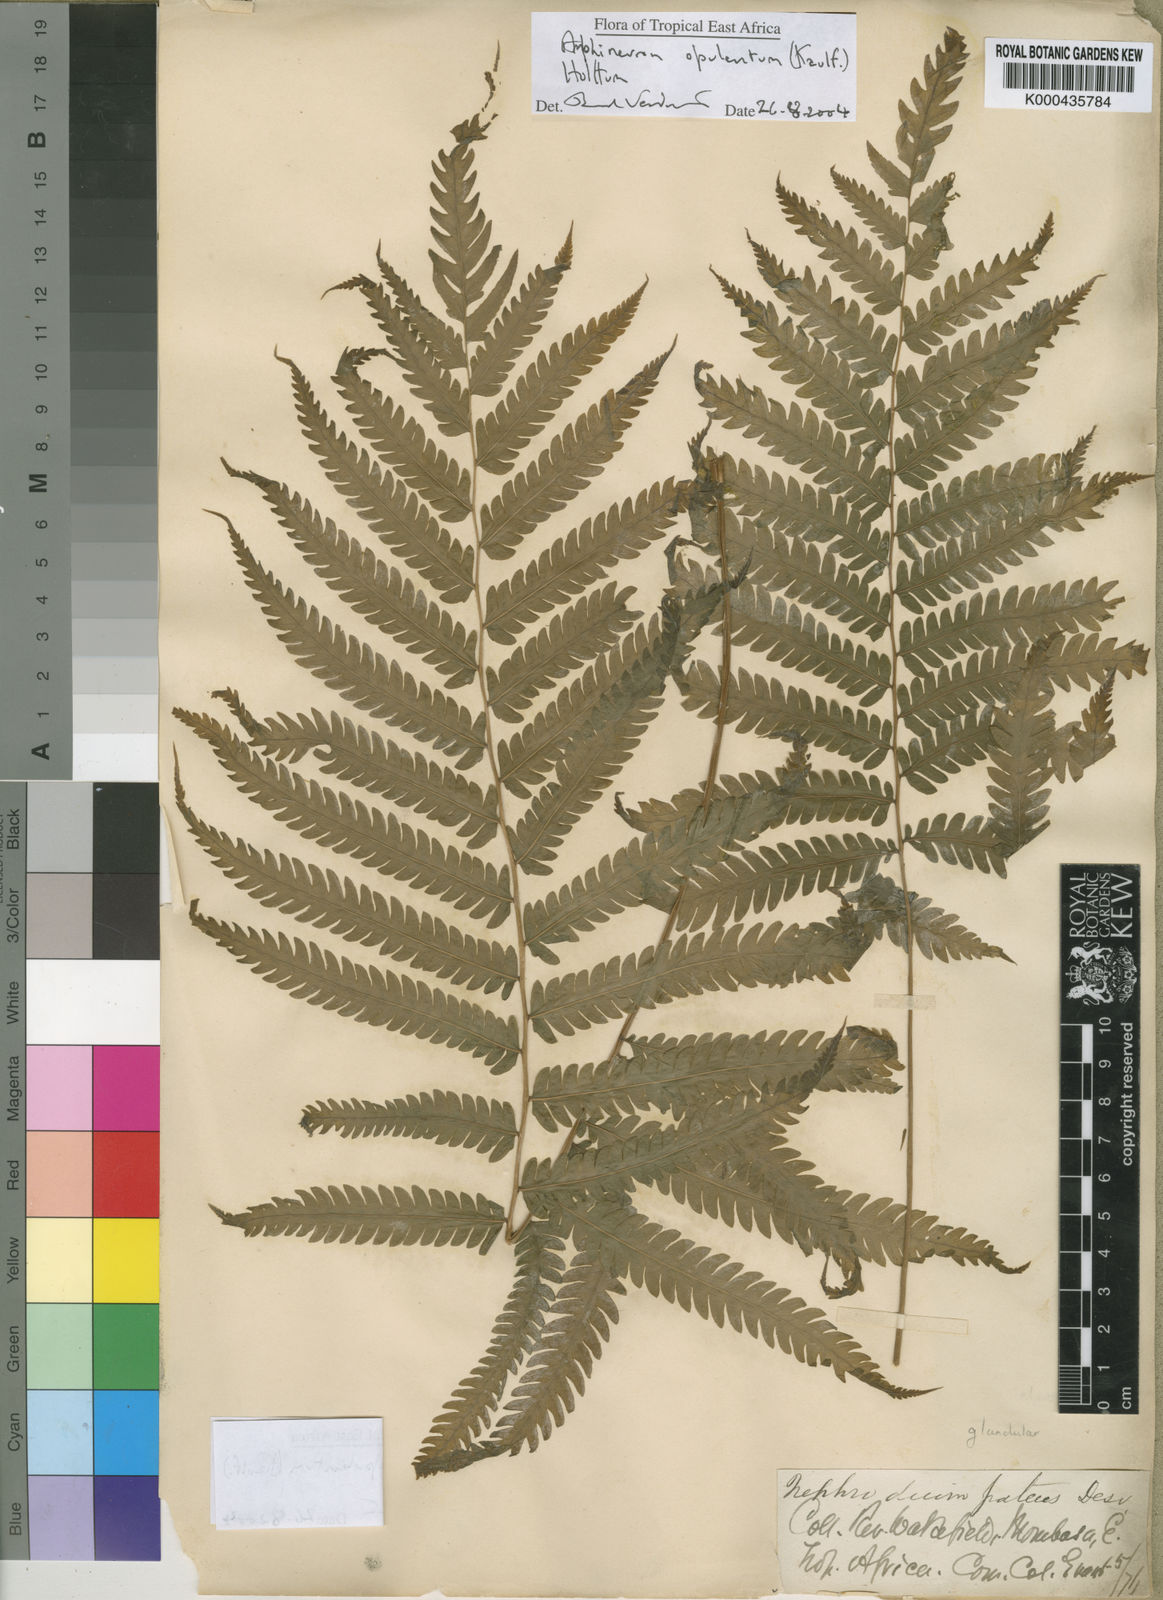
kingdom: Plantae
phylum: Tracheophyta
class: Polypodiopsida
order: Polypodiales
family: Thelypteridaceae
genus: Amblovenatum
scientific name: Amblovenatum opulentum
